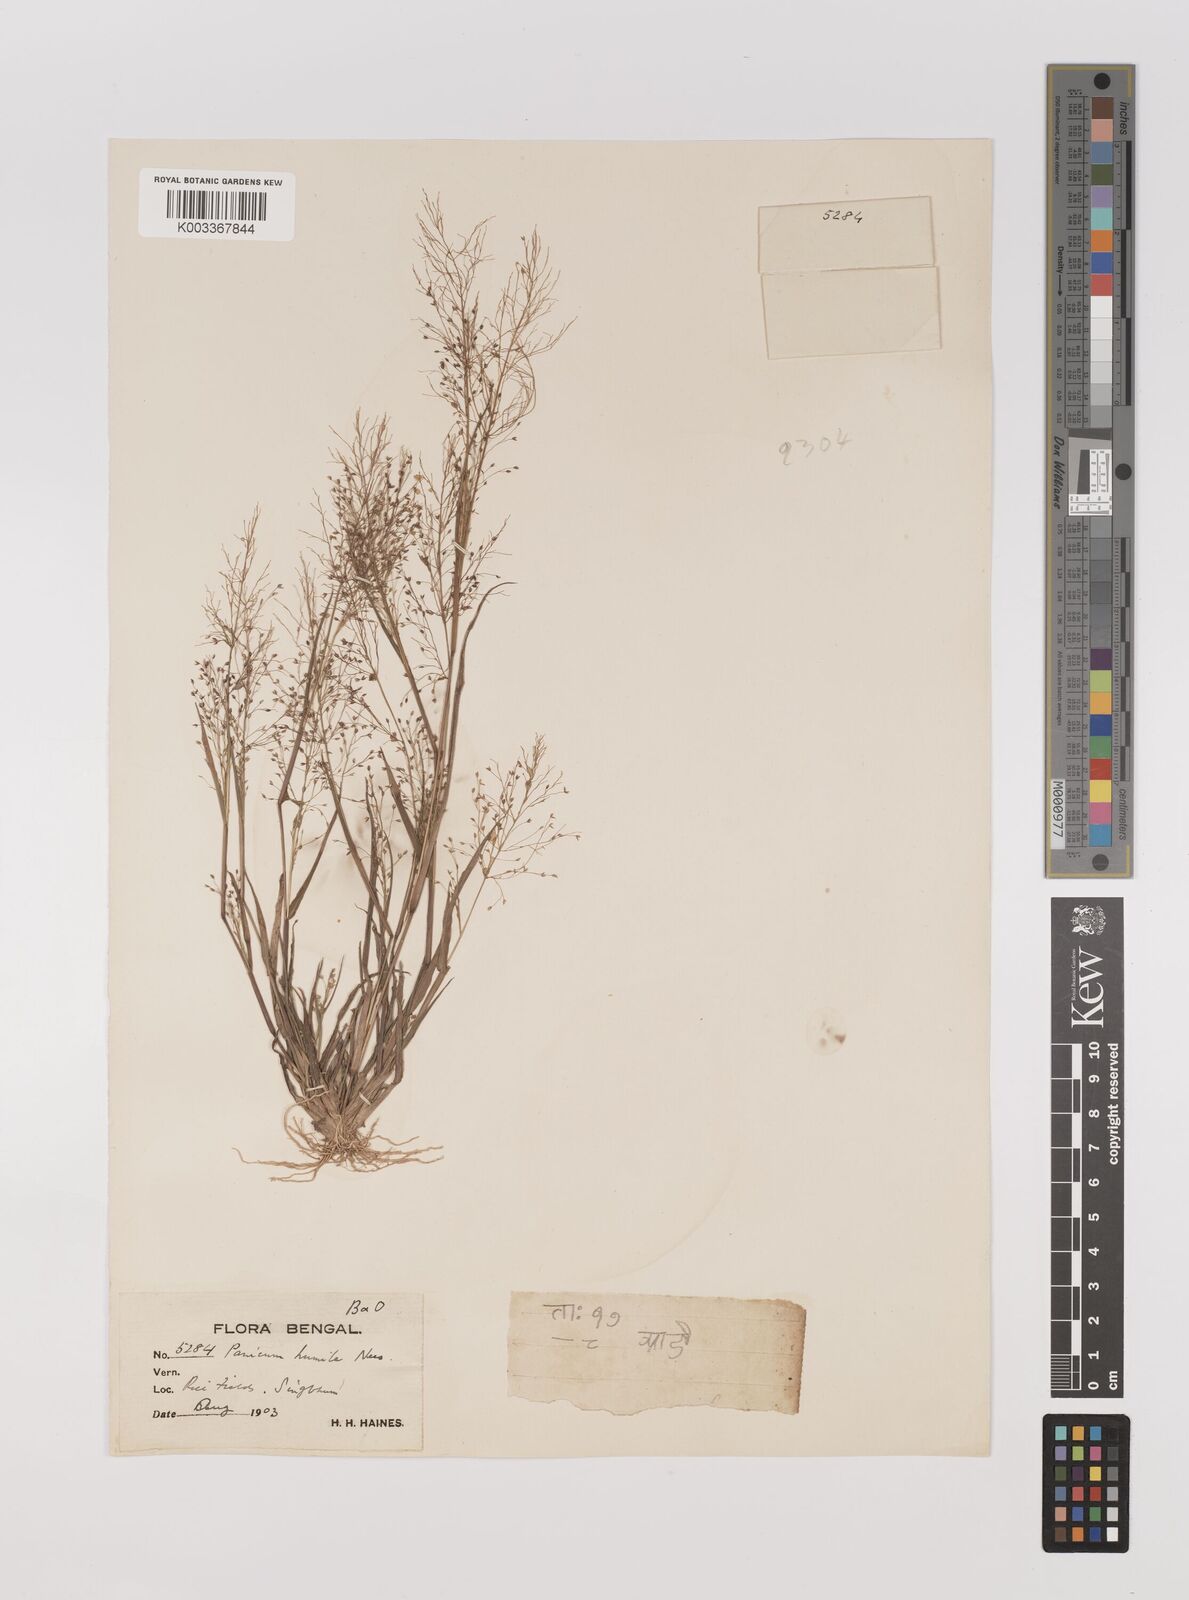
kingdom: Plantae
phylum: Tracheophyta
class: Liliopsida
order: Poales
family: Poaceae
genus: Panicum
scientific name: Panicum humile
